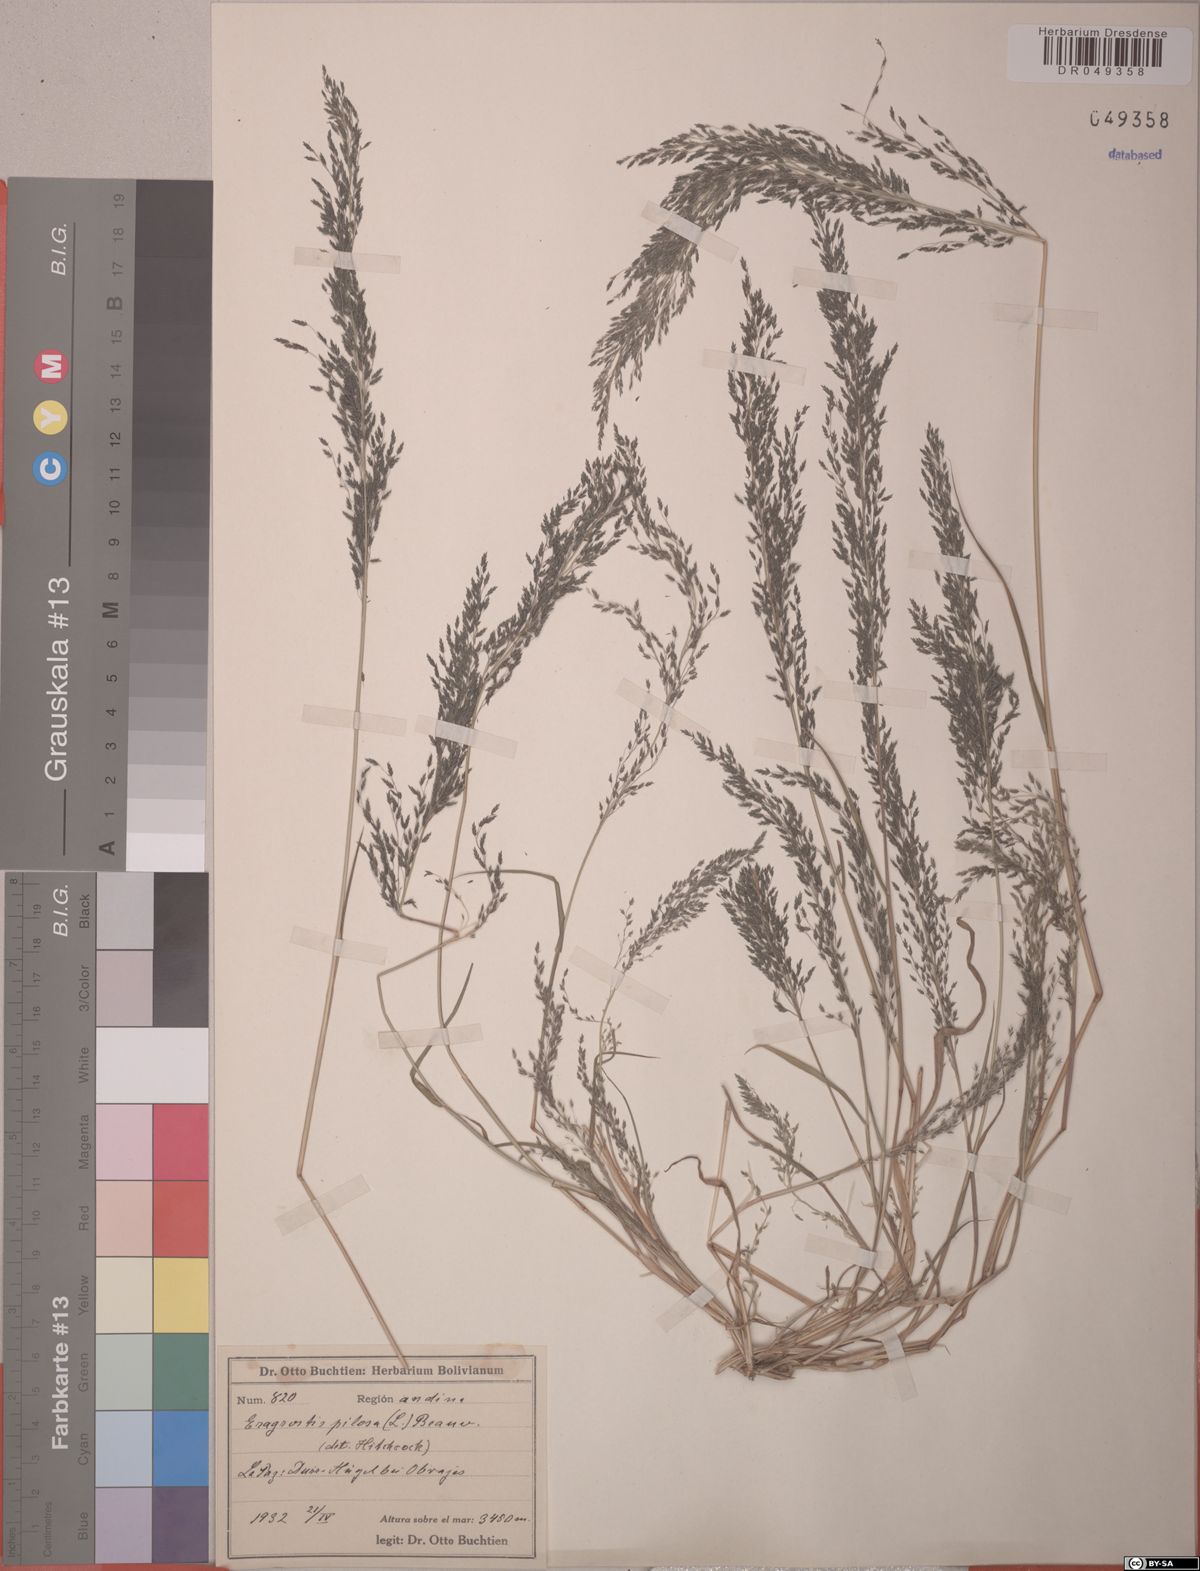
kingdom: Plantae
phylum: Tracheophyta
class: Liliopsida
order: Poales
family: Poaceae
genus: Eragrostis
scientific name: Eragrostis pilosa
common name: Indian lovegrass
